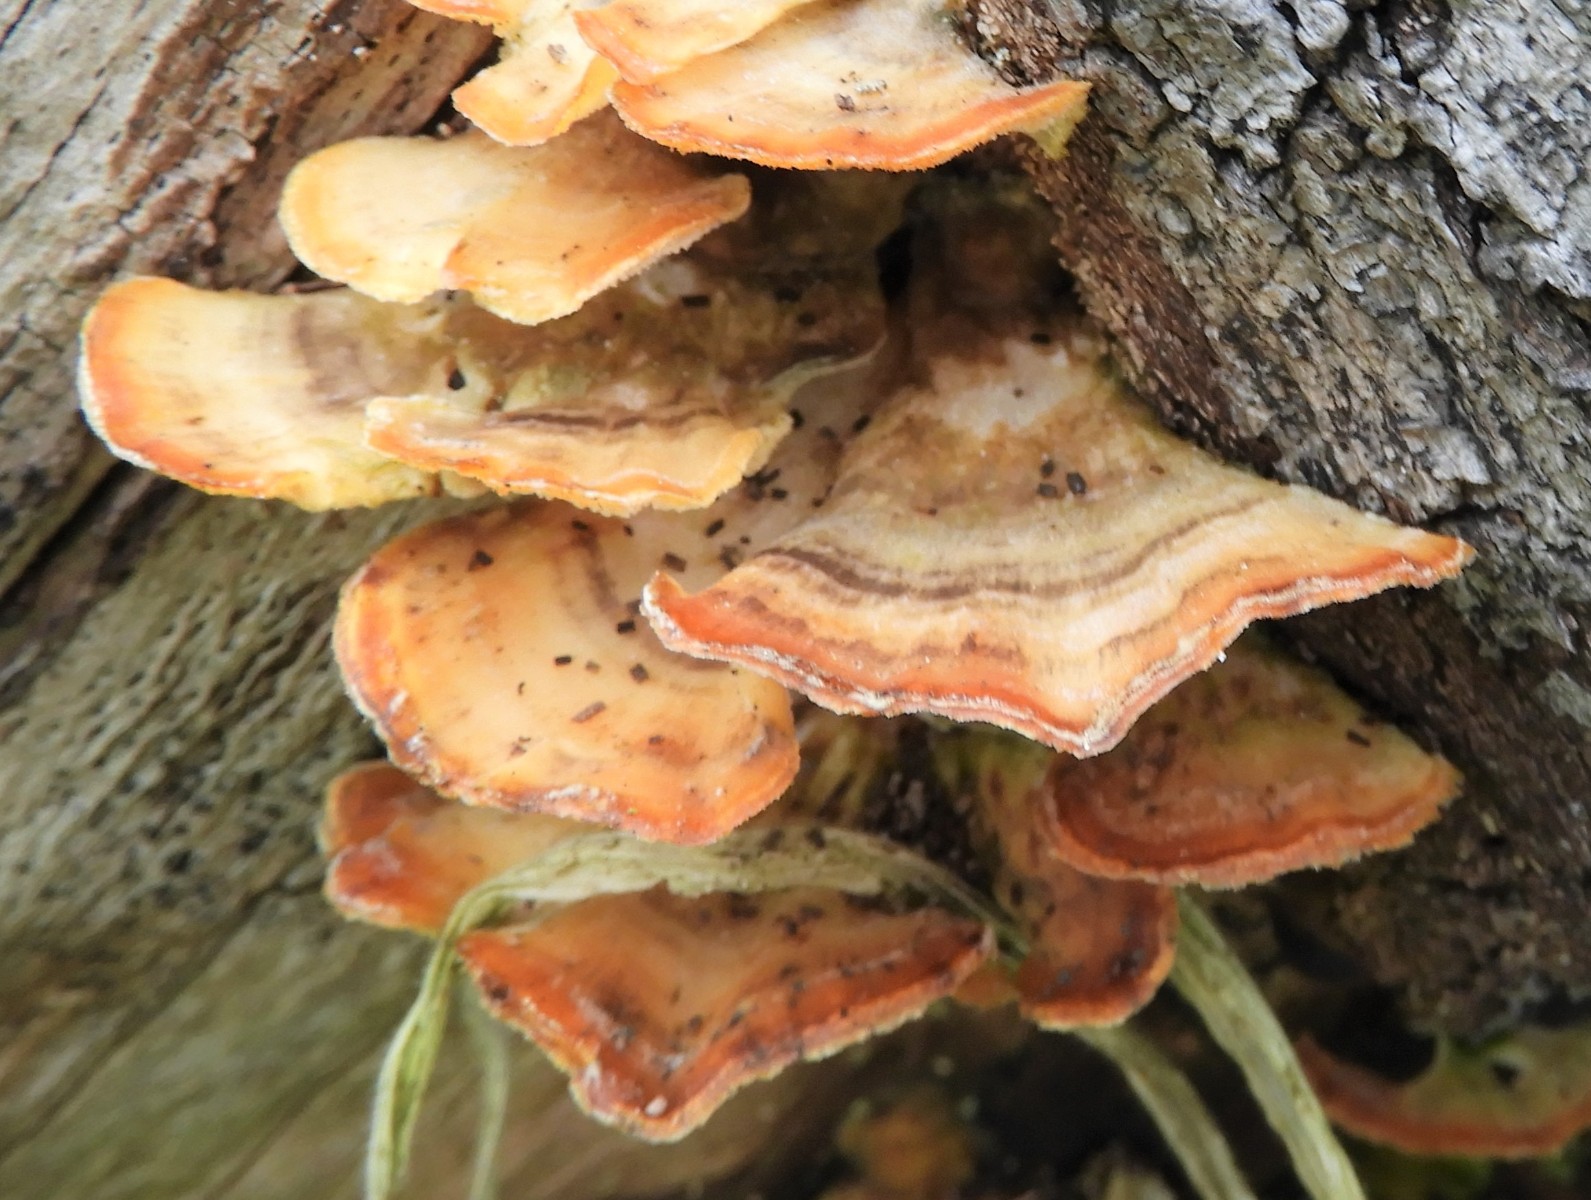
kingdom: Fungi
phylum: Basidiomycota
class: Agaricomycetes
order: Polyporales
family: Polyporaceae
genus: Trametes
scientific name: Trametes ochracea
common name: bæltet læderporesvamp
